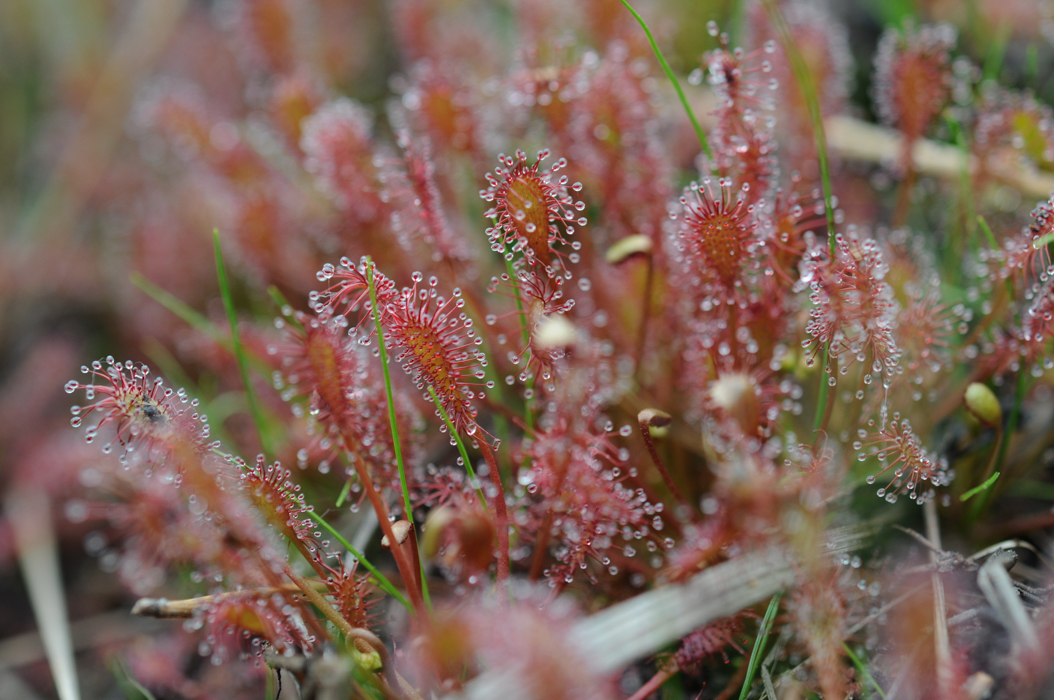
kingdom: Plantae
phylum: Tracheophyta
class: Magnoliopsida
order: Caryophyllales
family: Droseraceae
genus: Drosera
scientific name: Drosera intermedia
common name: Oblong-leaved sundew
